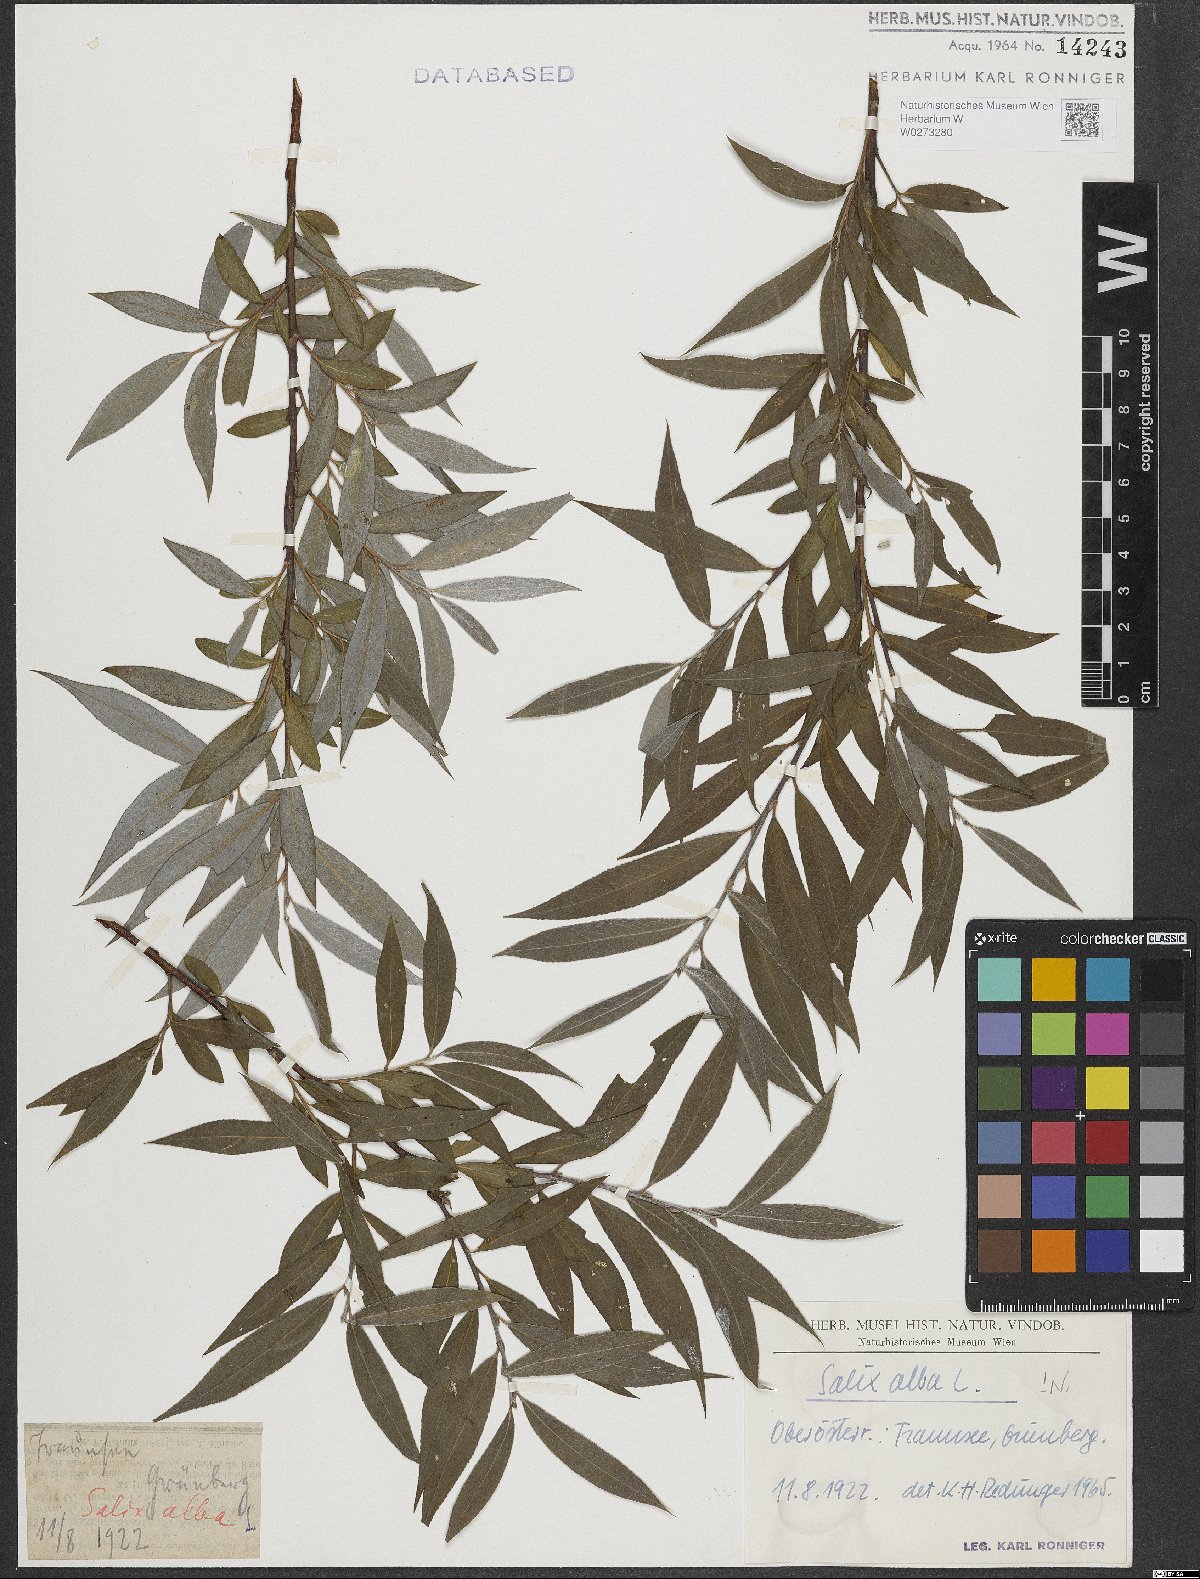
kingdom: Plantae
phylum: Tracheophyta
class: Magnoliopsida
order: Malpighiales
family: Salicaceae
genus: Salix
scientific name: Salix alba
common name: White willow
